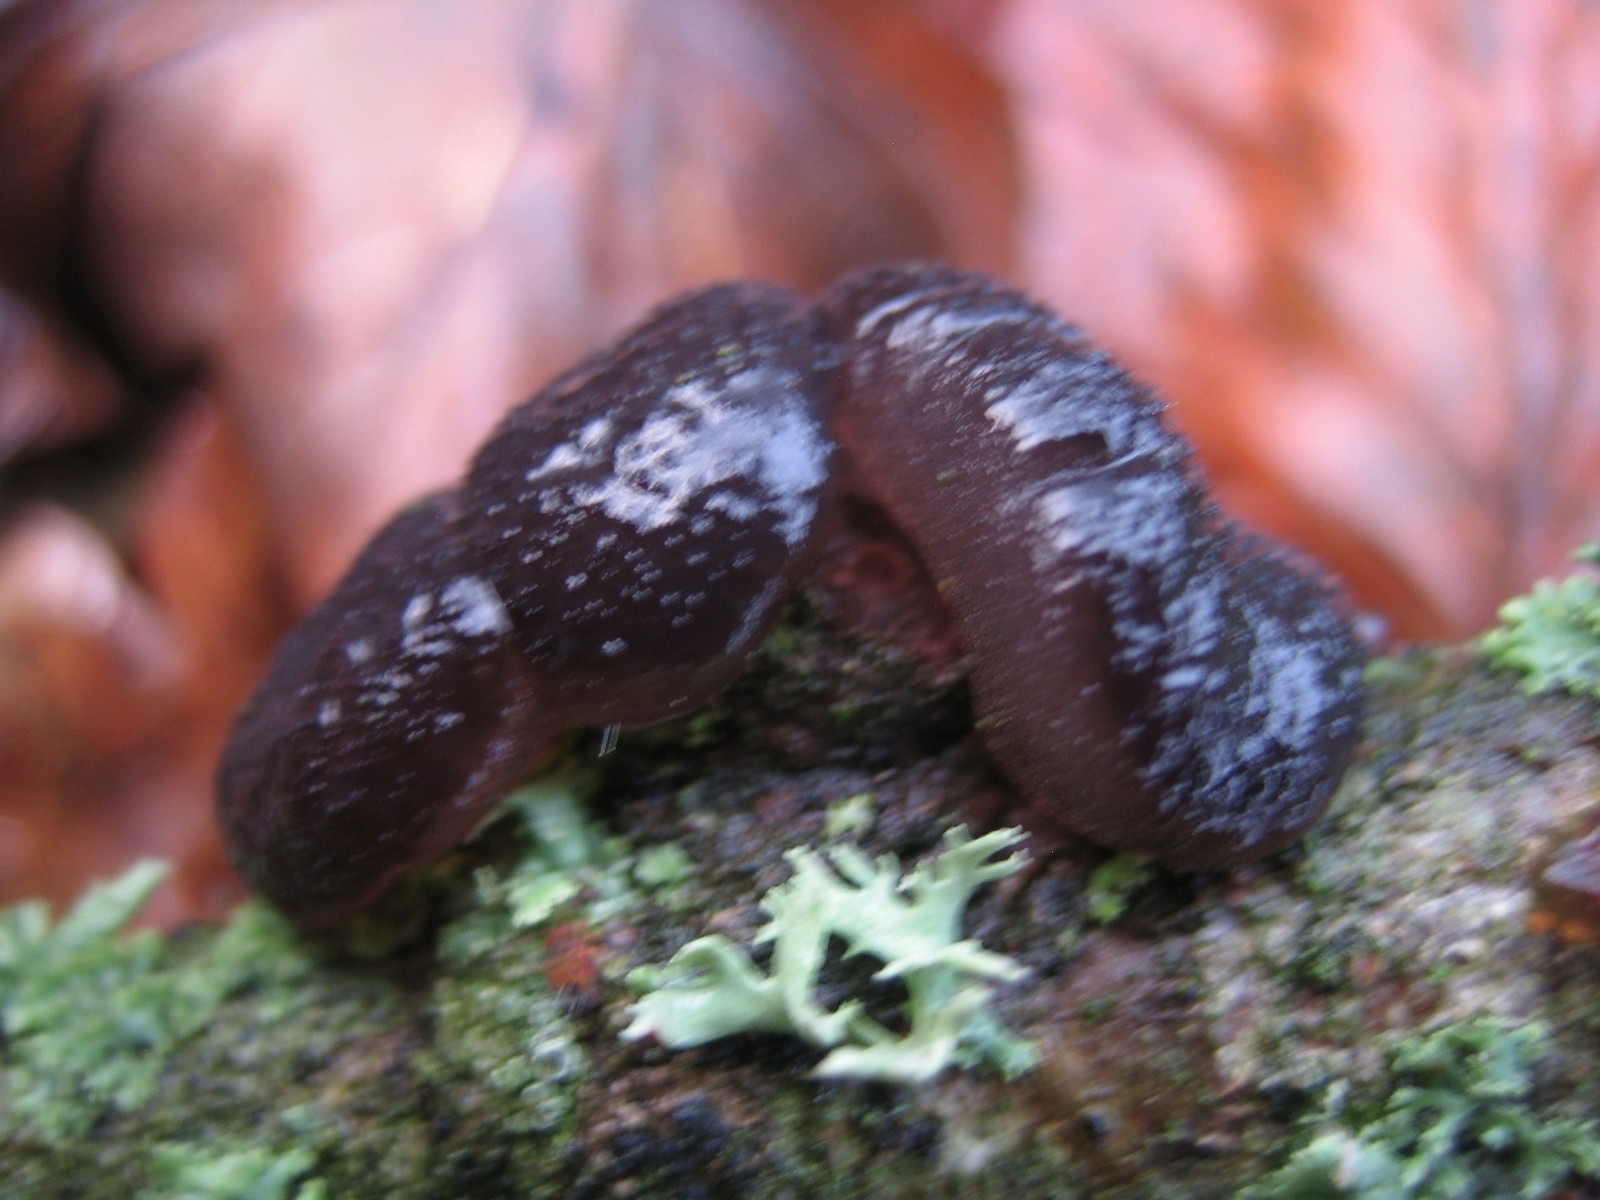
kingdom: Fungi
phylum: Basidiomycota
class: Agaricomycetes
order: Auriculariales
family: Auriculariaceae
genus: Exidia
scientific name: Exidia glandulosa
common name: ege-bævretop
